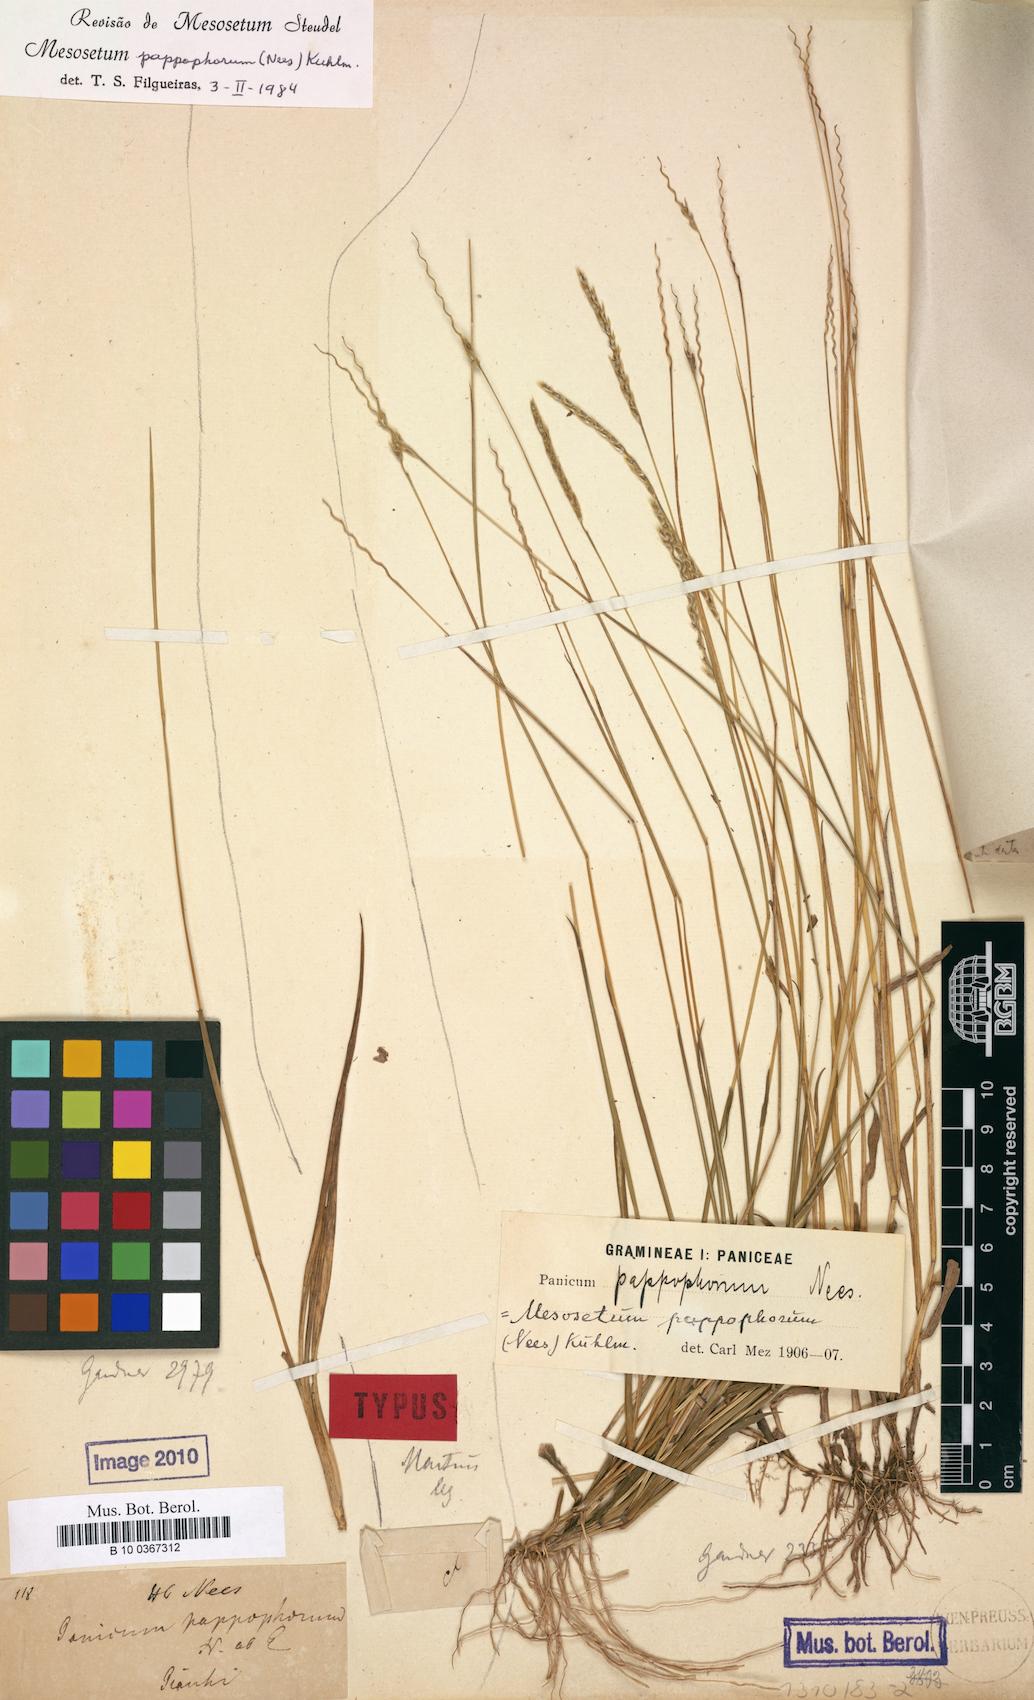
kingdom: Plantae
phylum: Tracheophyta
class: Liliopsida
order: Poales
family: Poaceae
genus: Mesosetum
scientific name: Mesosetum pappophorum
